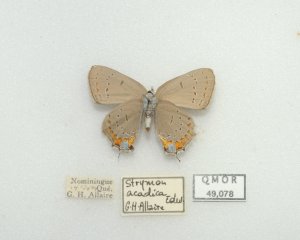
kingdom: Animalia
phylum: Arthropoda
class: Insecta
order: Lepidoptera
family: Lycaenidae
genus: Strymon
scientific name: Strymon acadica
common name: Acadian Hairstreak
